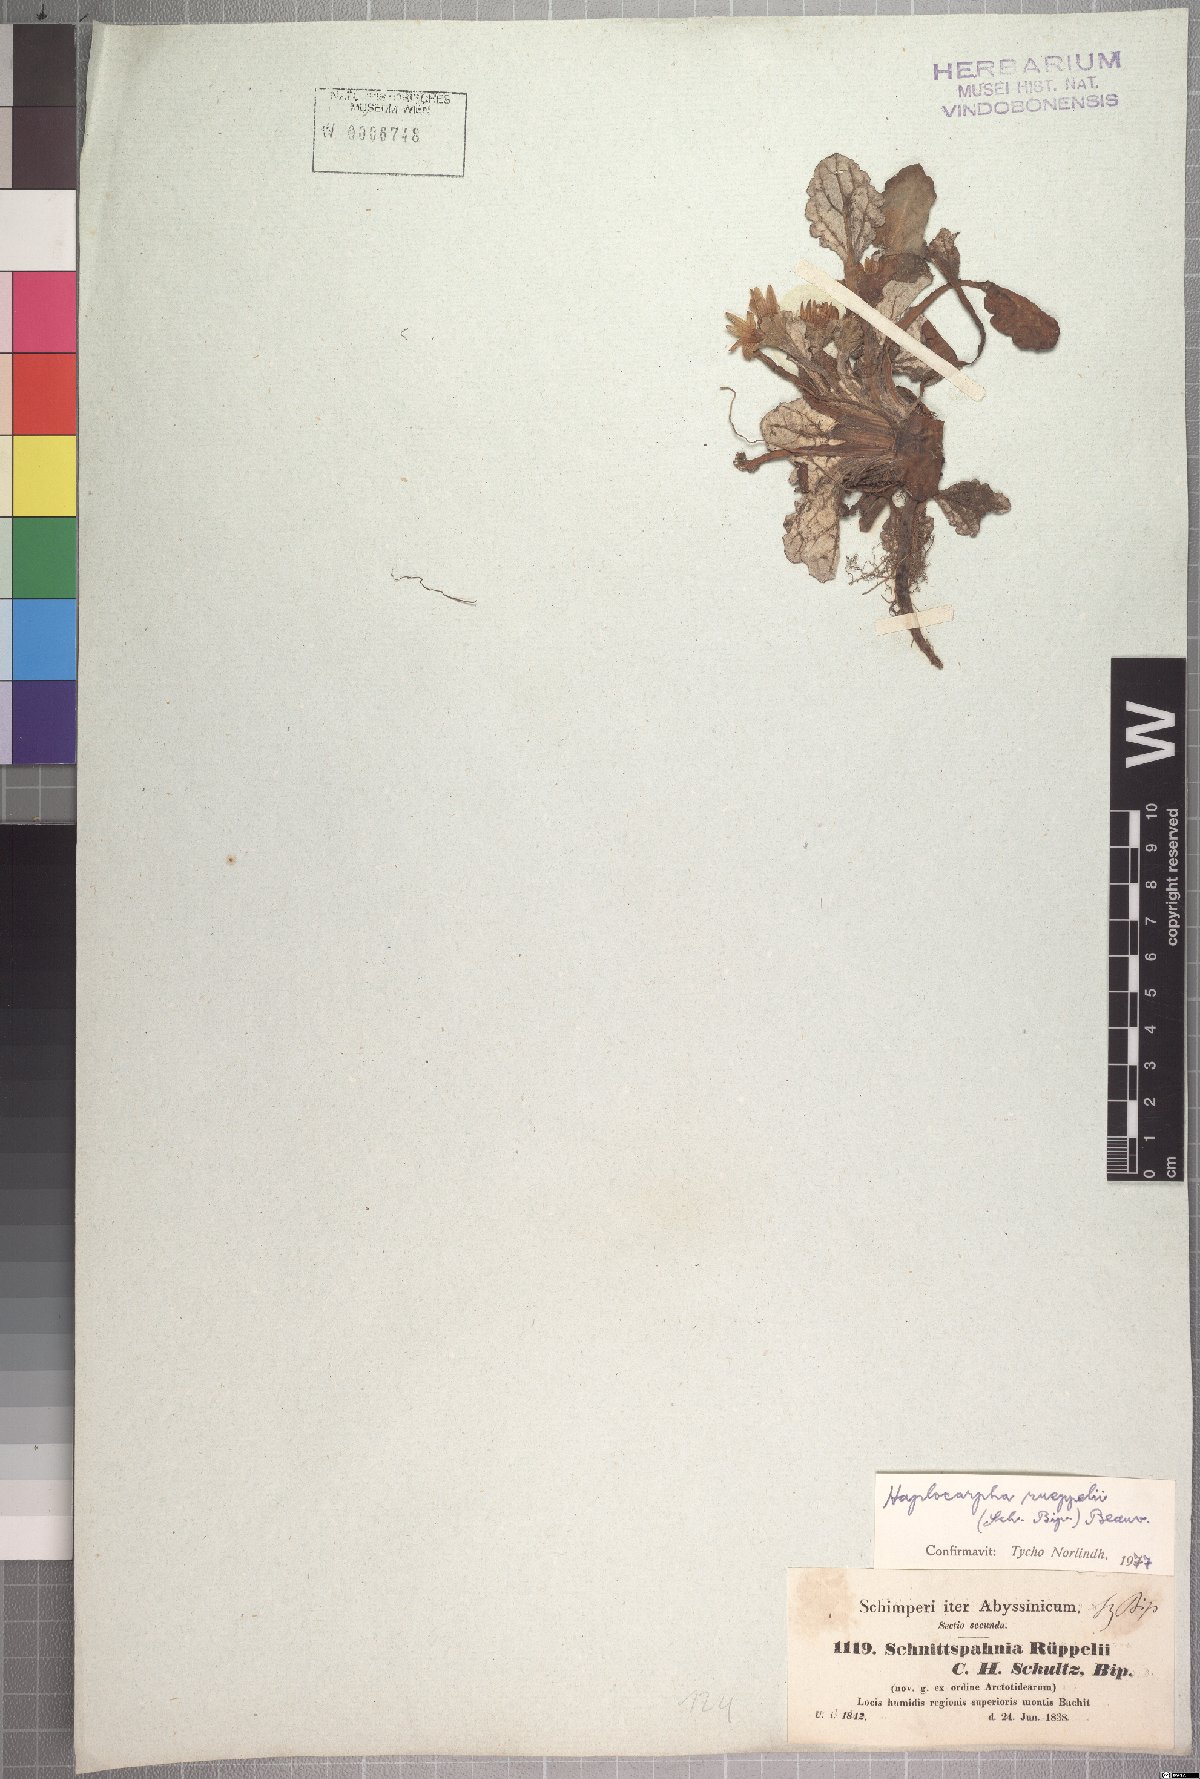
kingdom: Plantae
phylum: Tracheophyta
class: Magnoliopsida
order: Asterales
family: Asteraceae
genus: Haplocarpha
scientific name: Haplocarpha rueppelii
